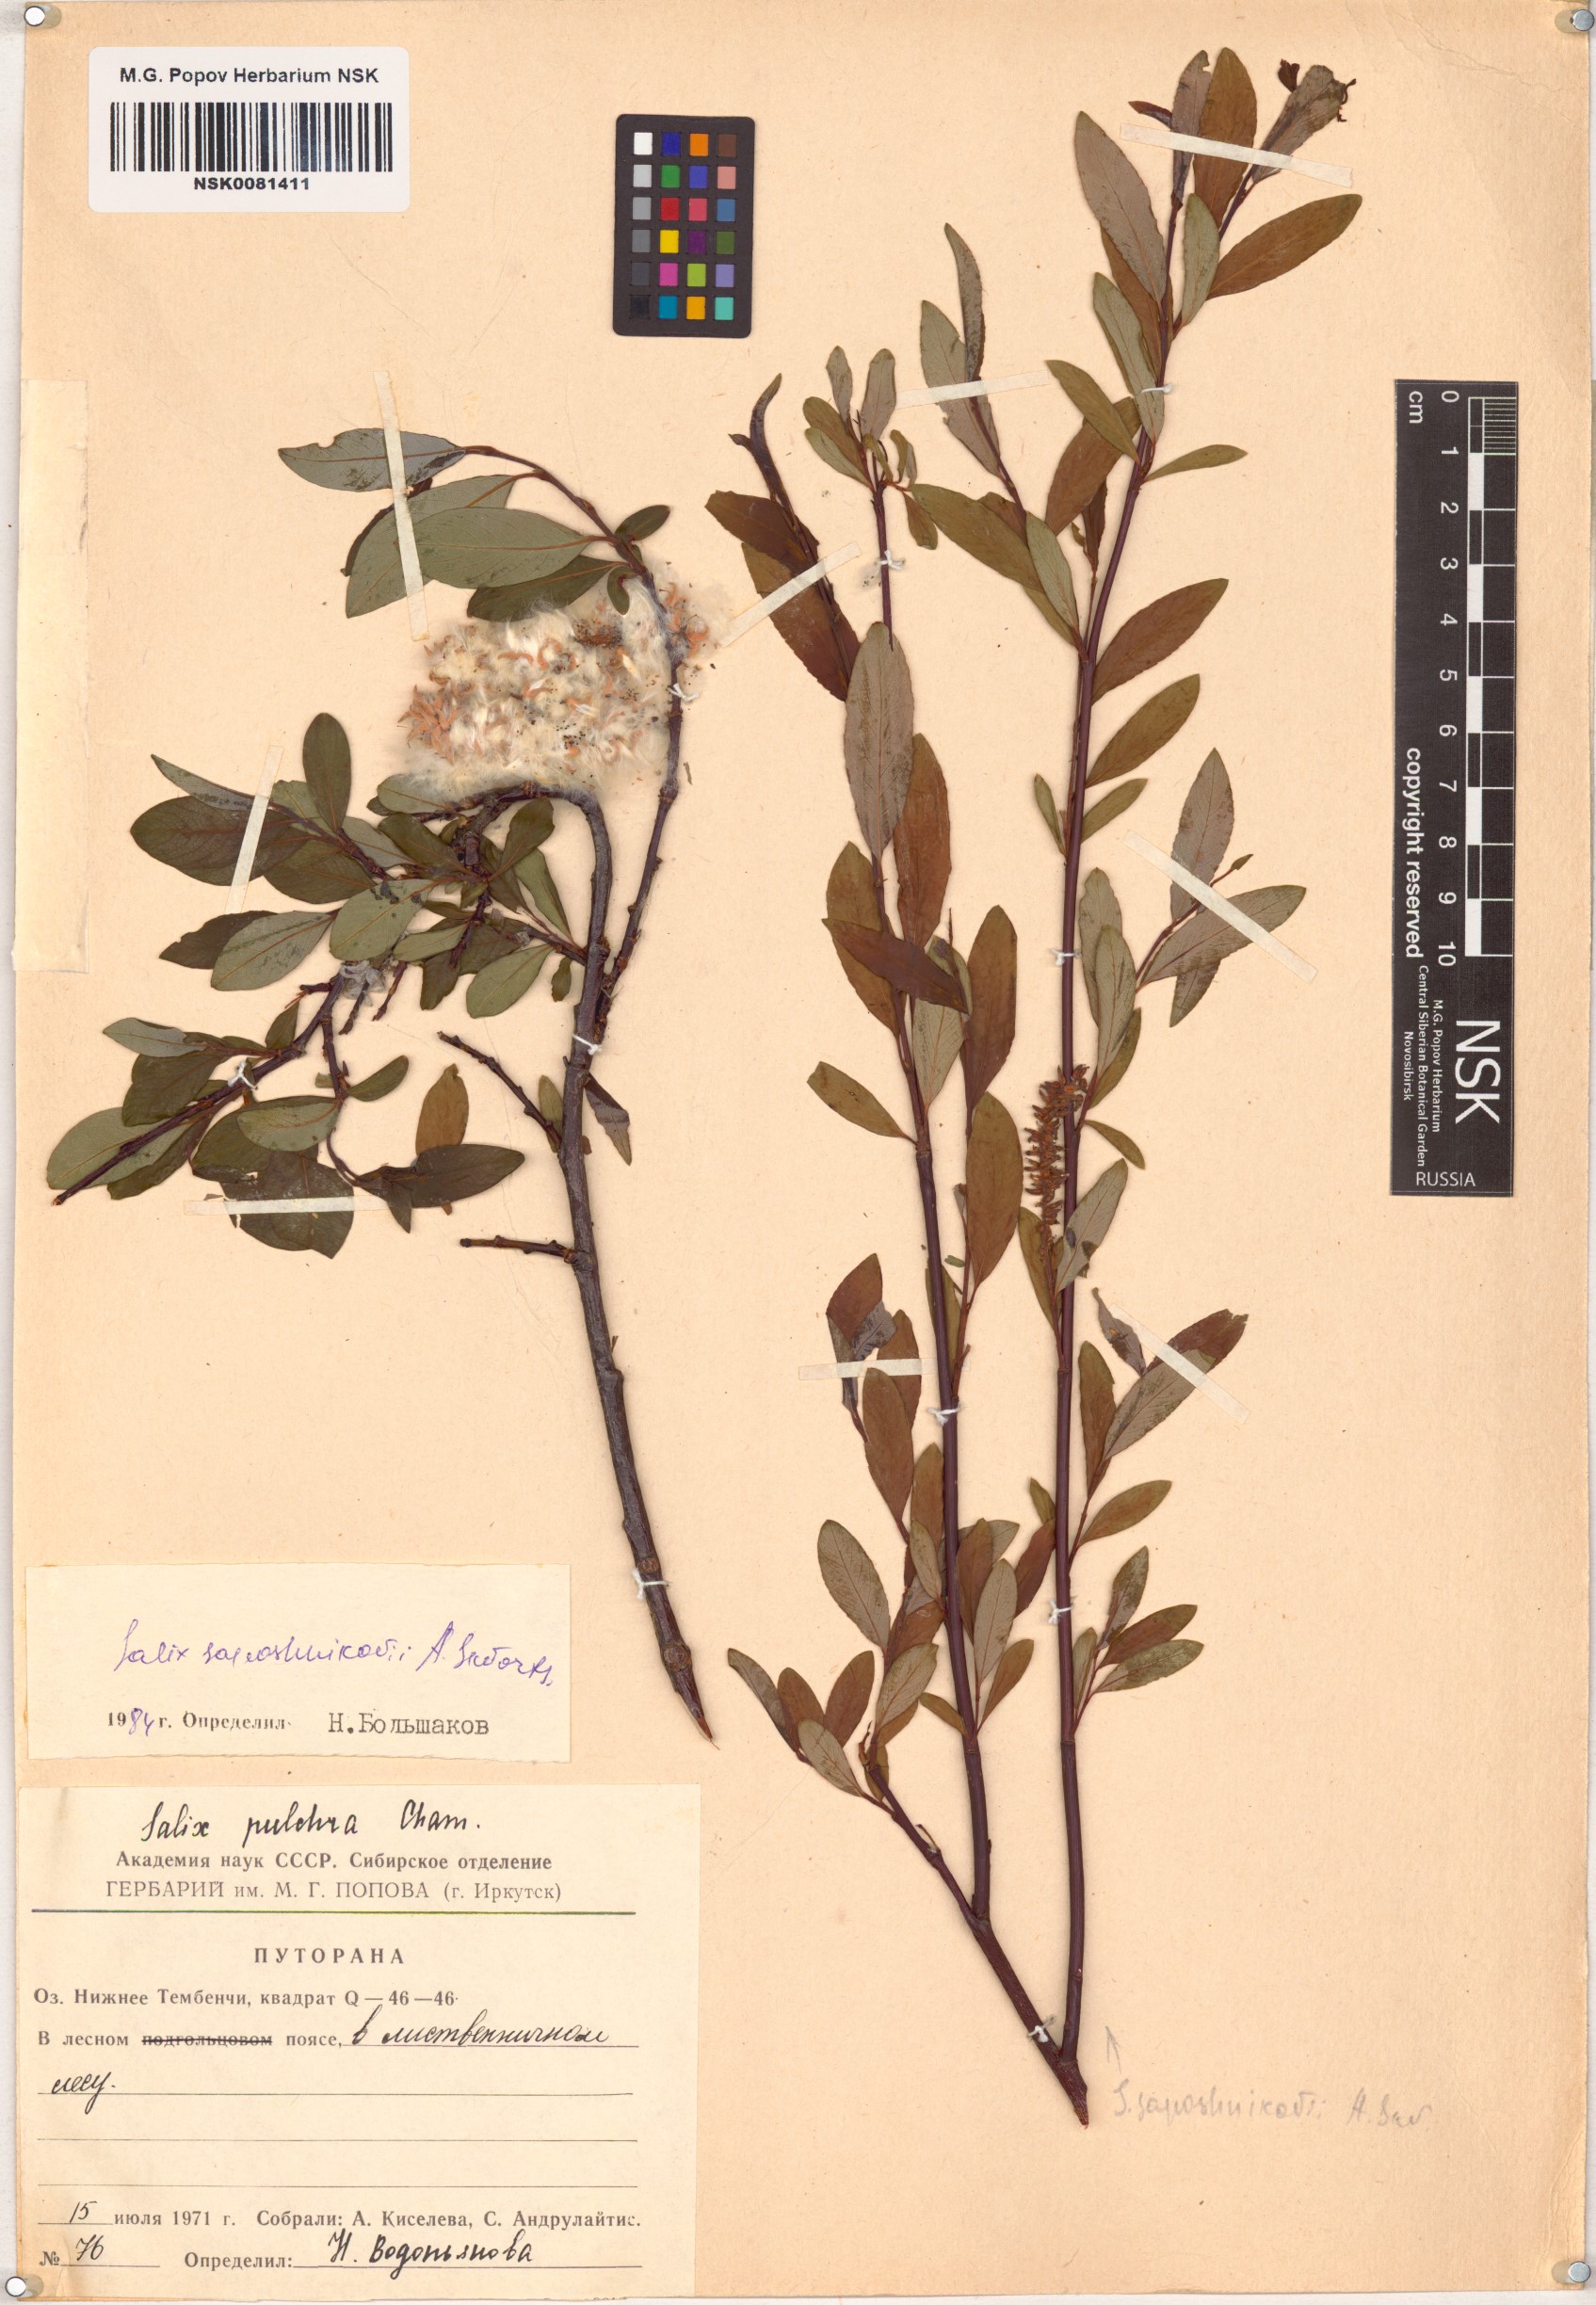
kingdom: Plantae
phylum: Tracheophyta
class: Magnoliopsida
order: Malpighiales
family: Salicaceae
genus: Salix
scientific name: Salix saposhnikovii
